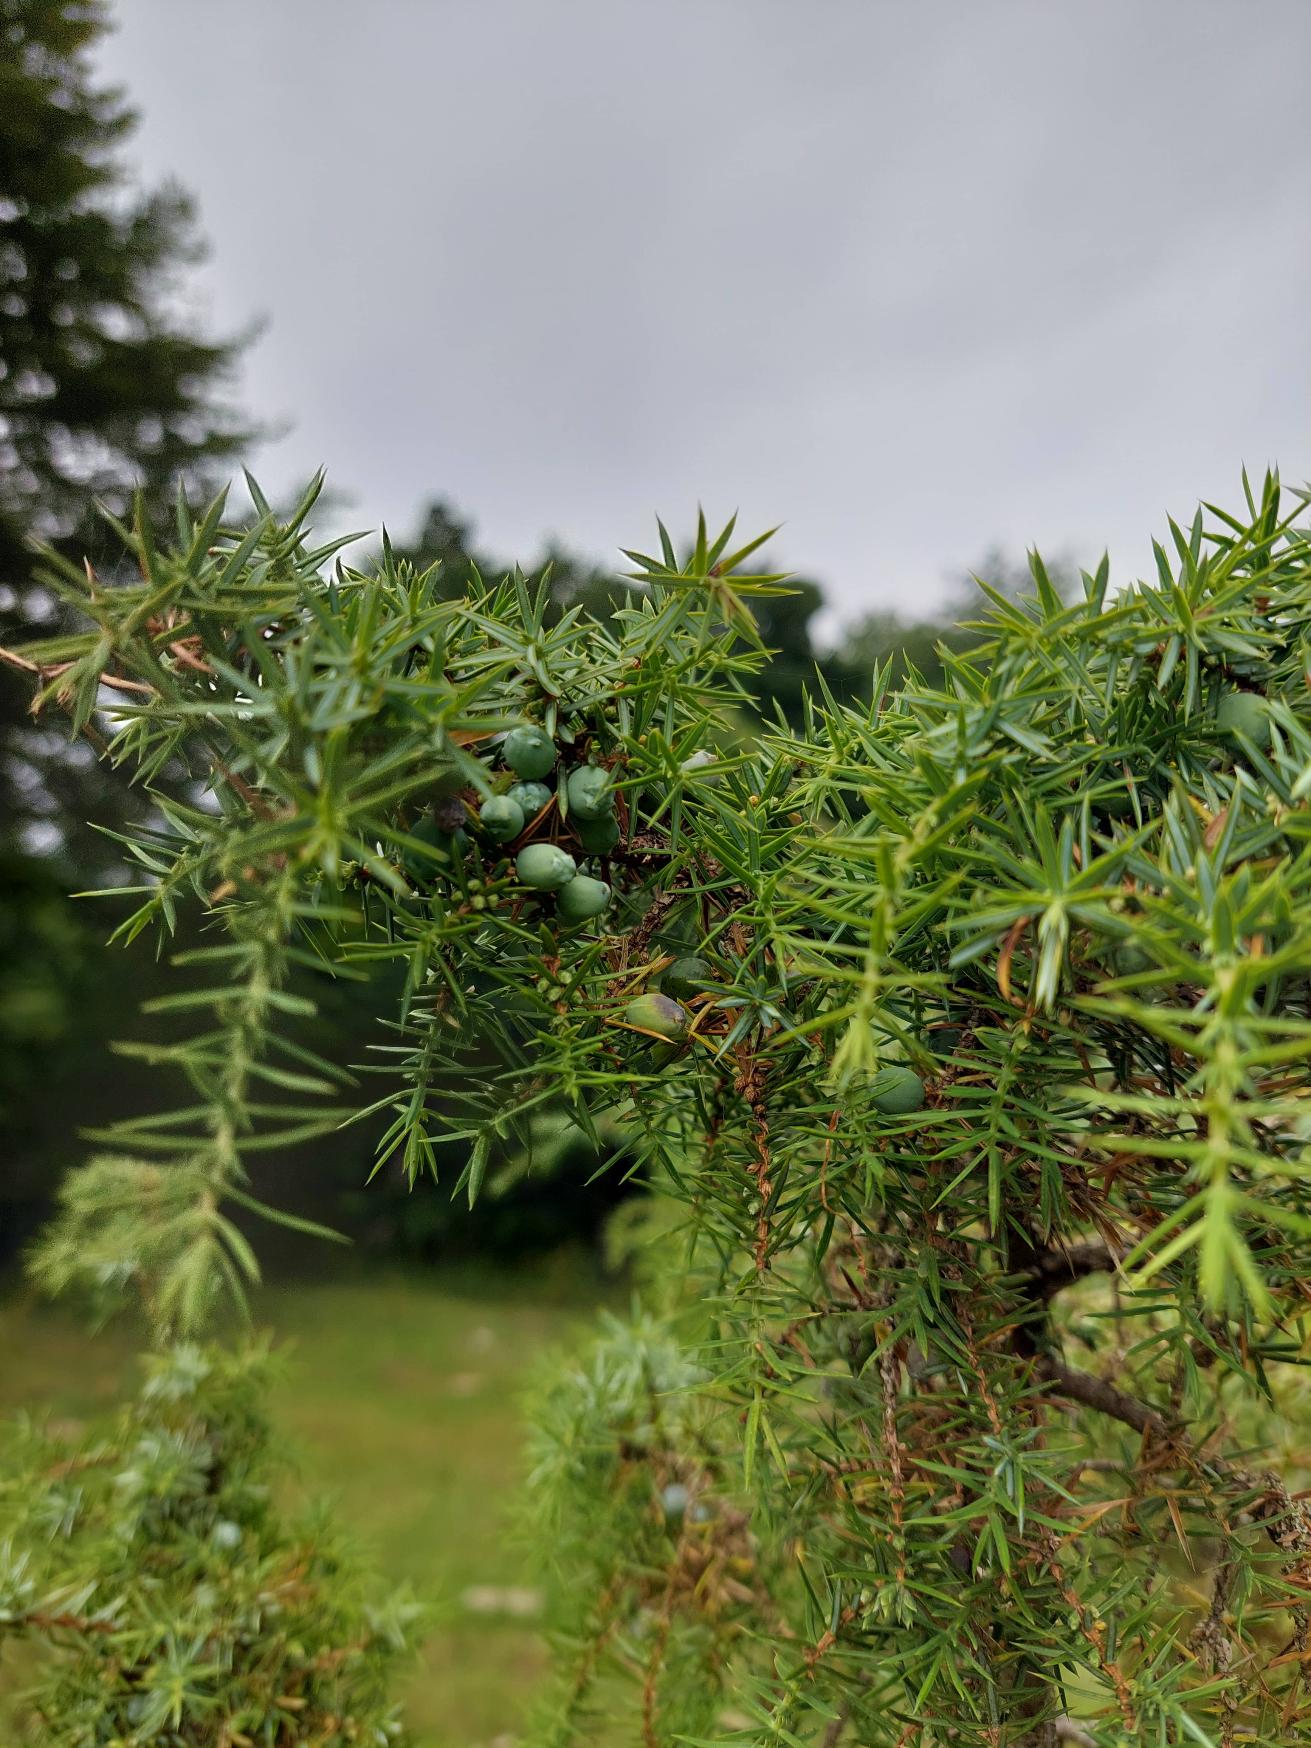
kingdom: Plantae
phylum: Tracheophyta
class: Pinopsida
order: Pinales
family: Cupressaceae
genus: Juniperus
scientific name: Juniperus communis
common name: Almindelig ene
